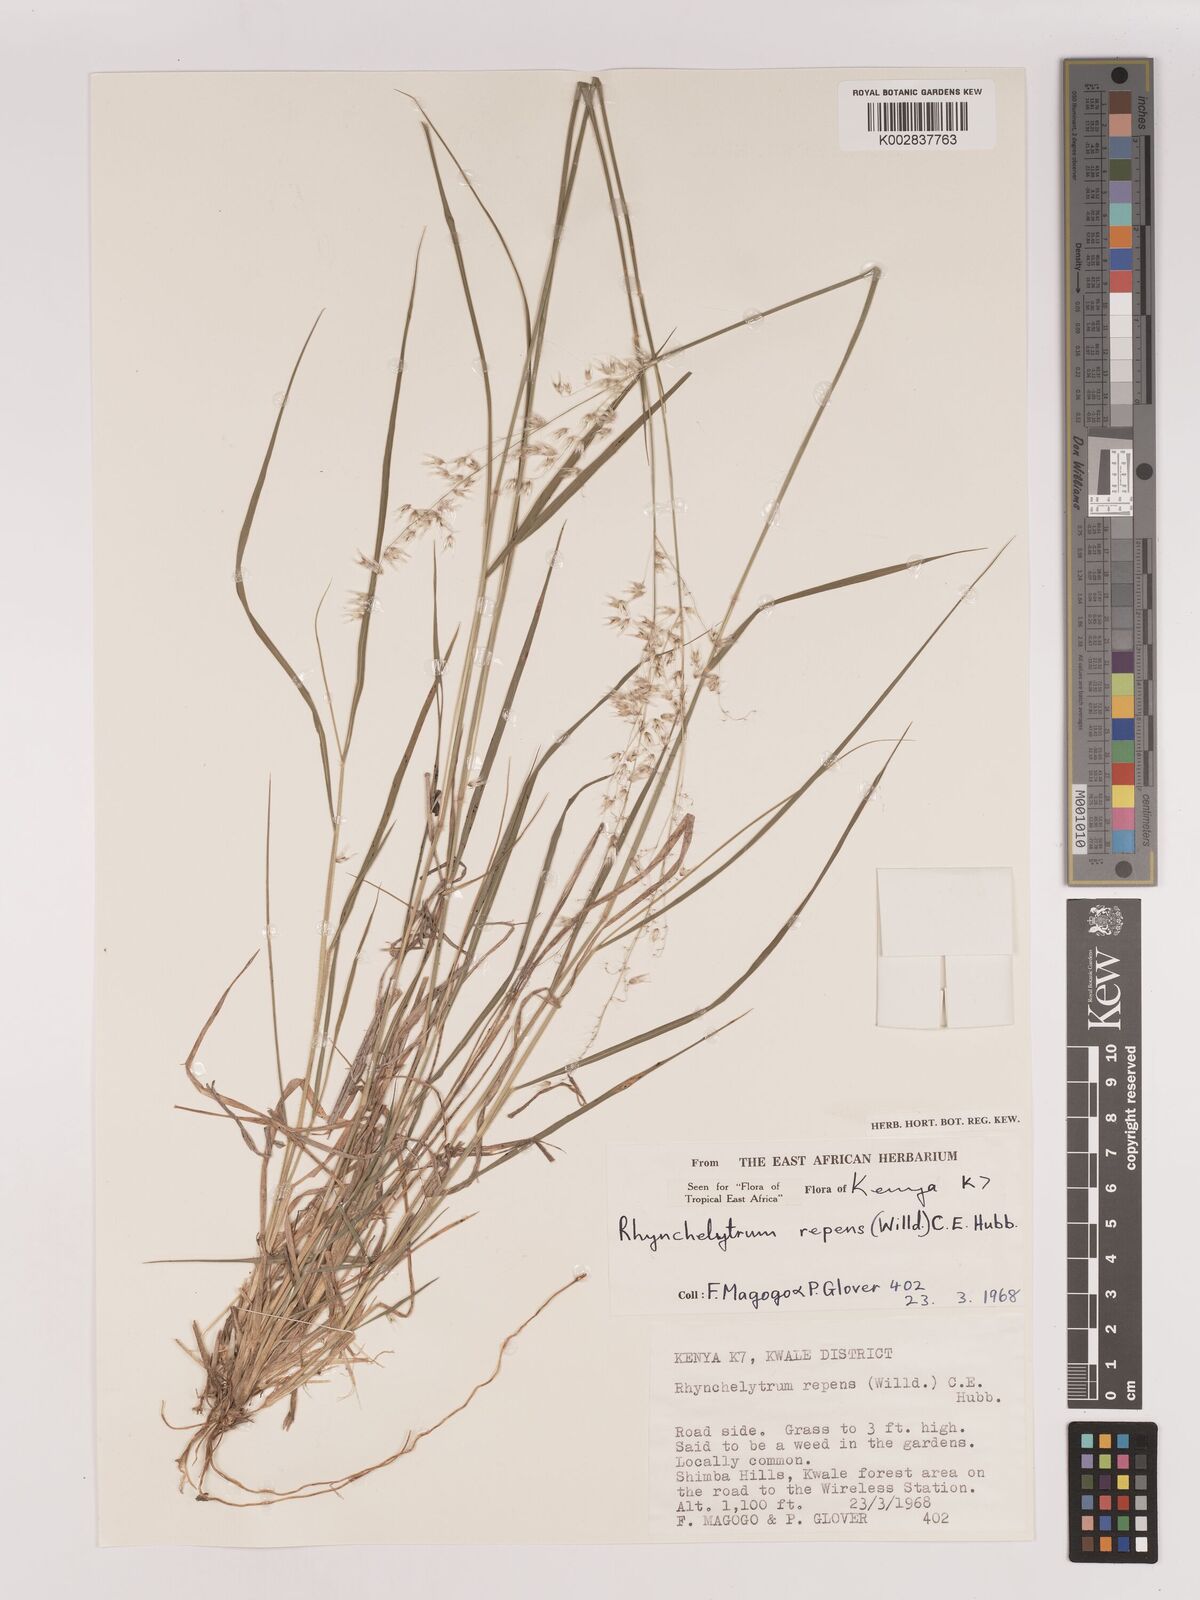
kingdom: Plantae
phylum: Tracheophyta
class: Liliopsida
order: Poales
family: Poaceae
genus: Melinis
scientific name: Melinis repens
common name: Rose natal grass
